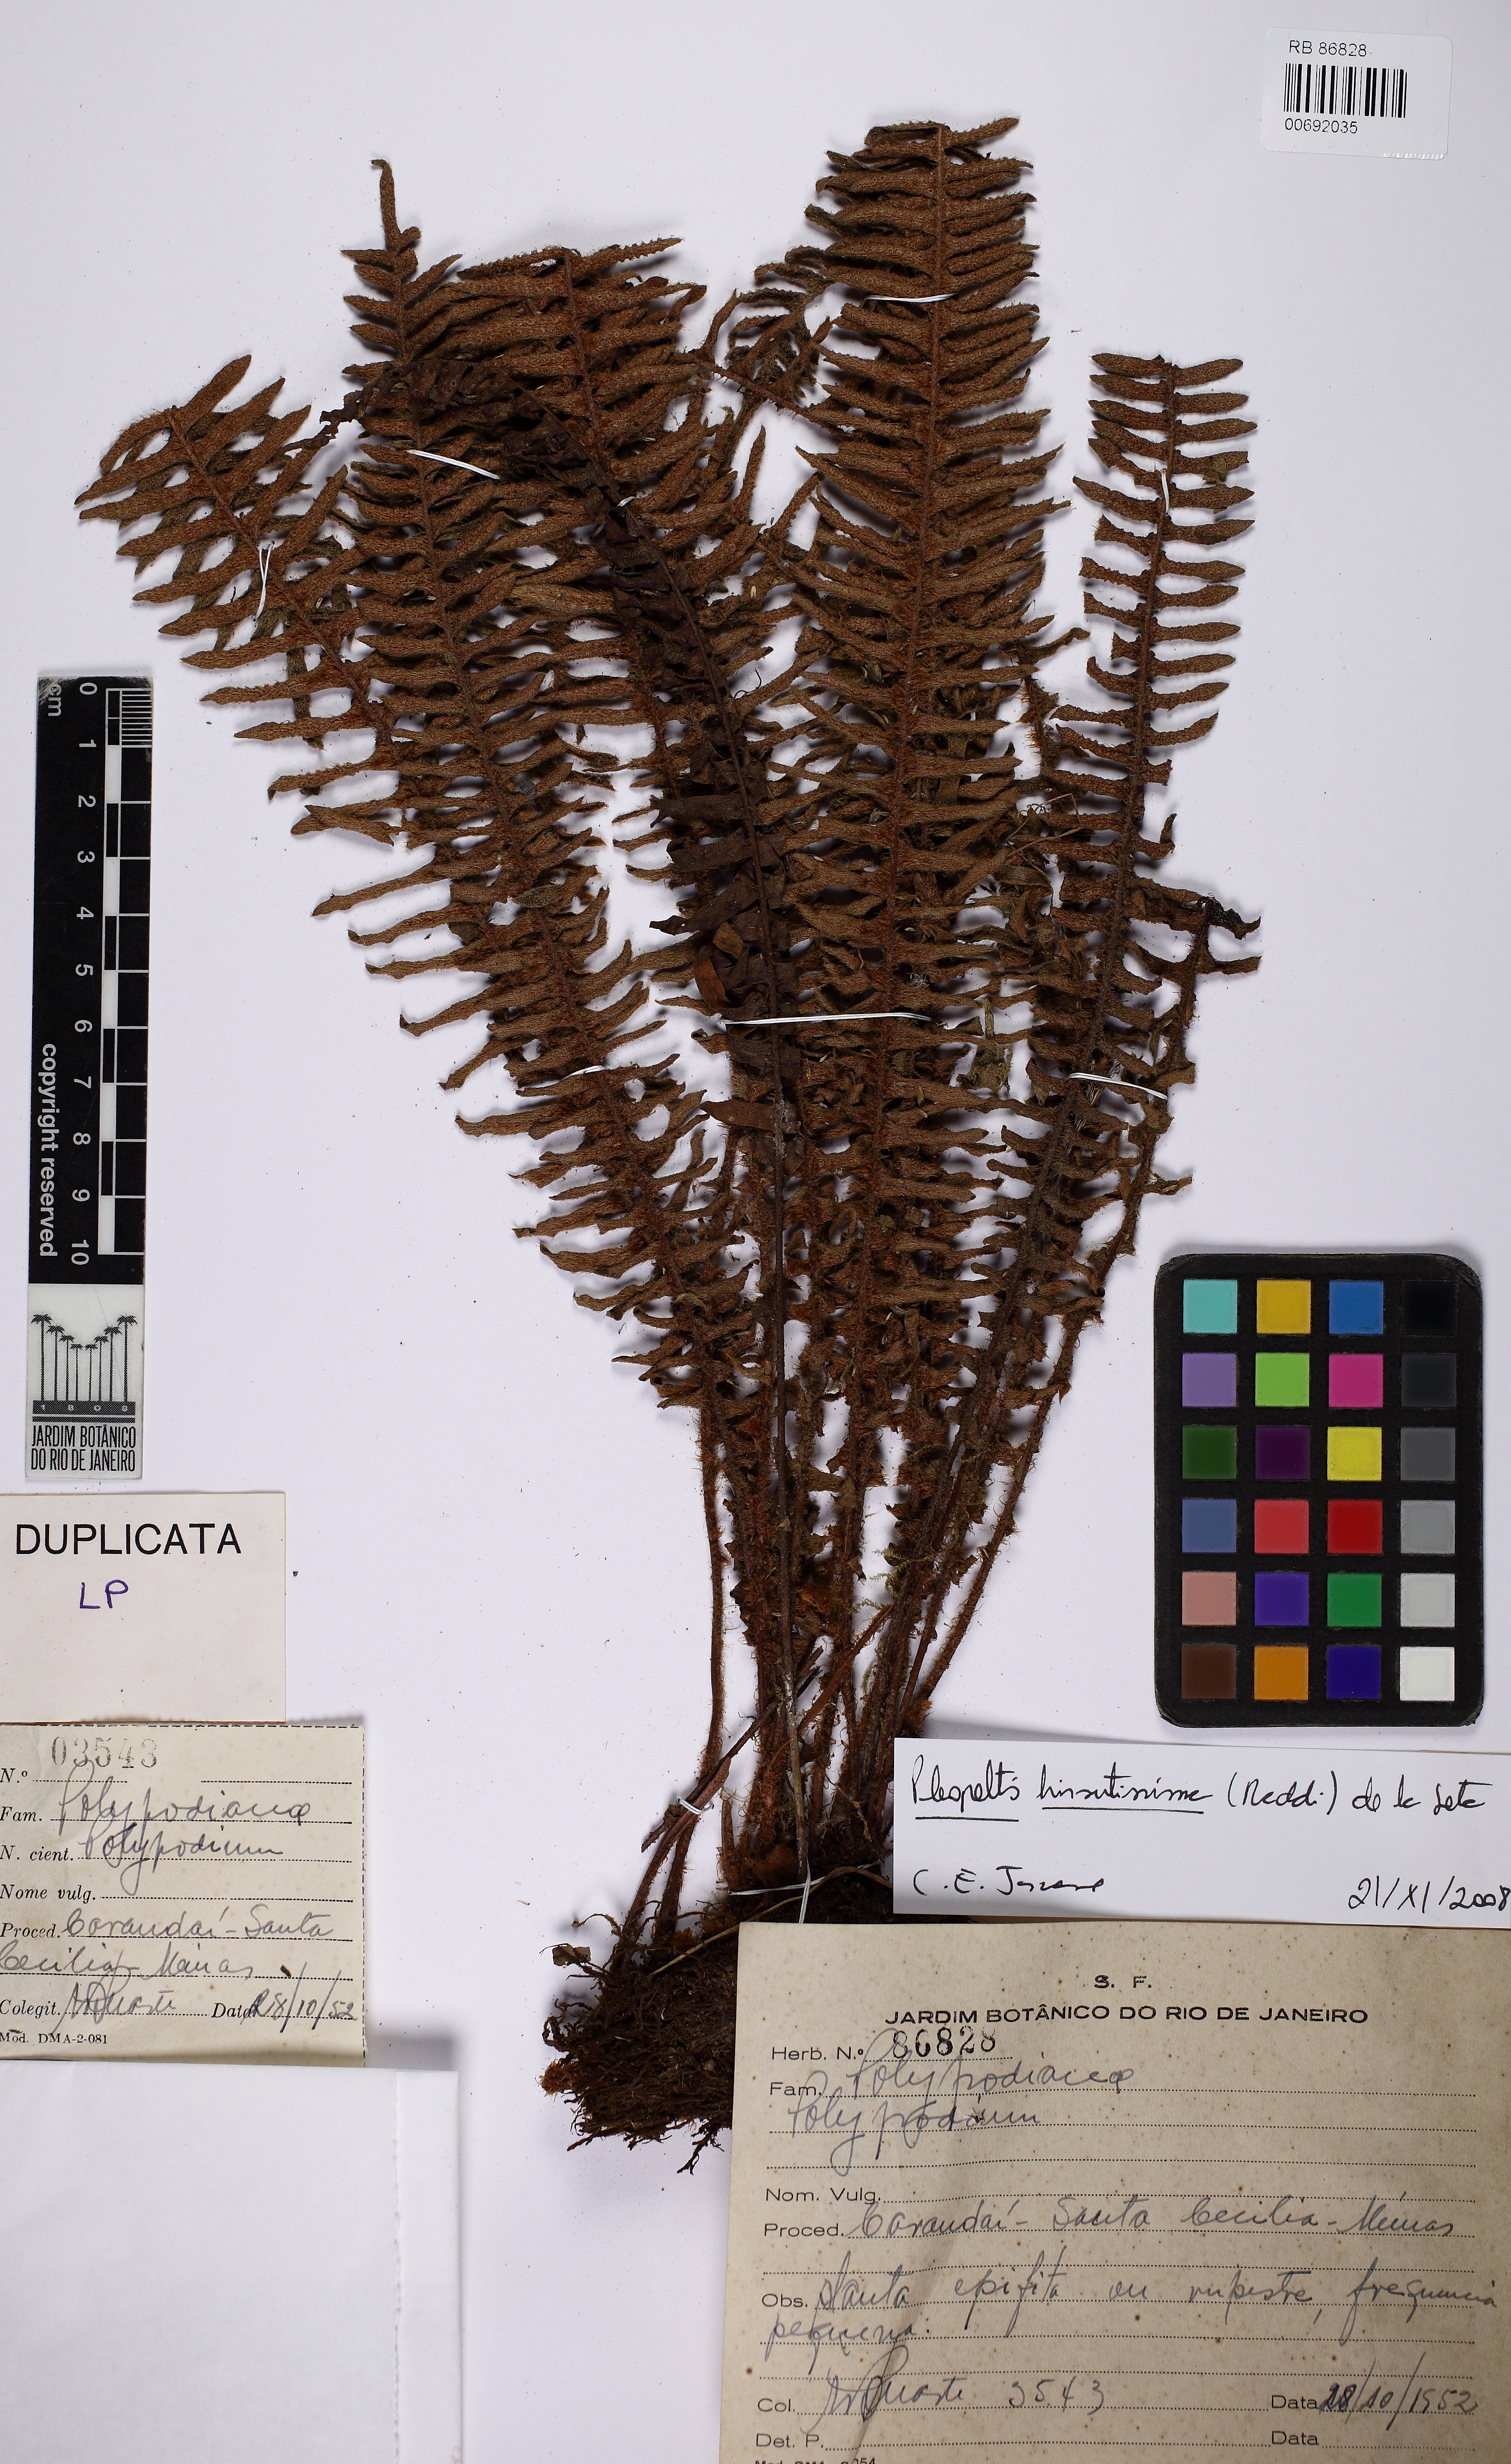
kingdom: Plantae
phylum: Tracheophyta
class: Polypodiopsida
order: Polypodiales
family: Polypodiaceae
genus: Pleopeltis
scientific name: Pleopeltis hirsutissima
